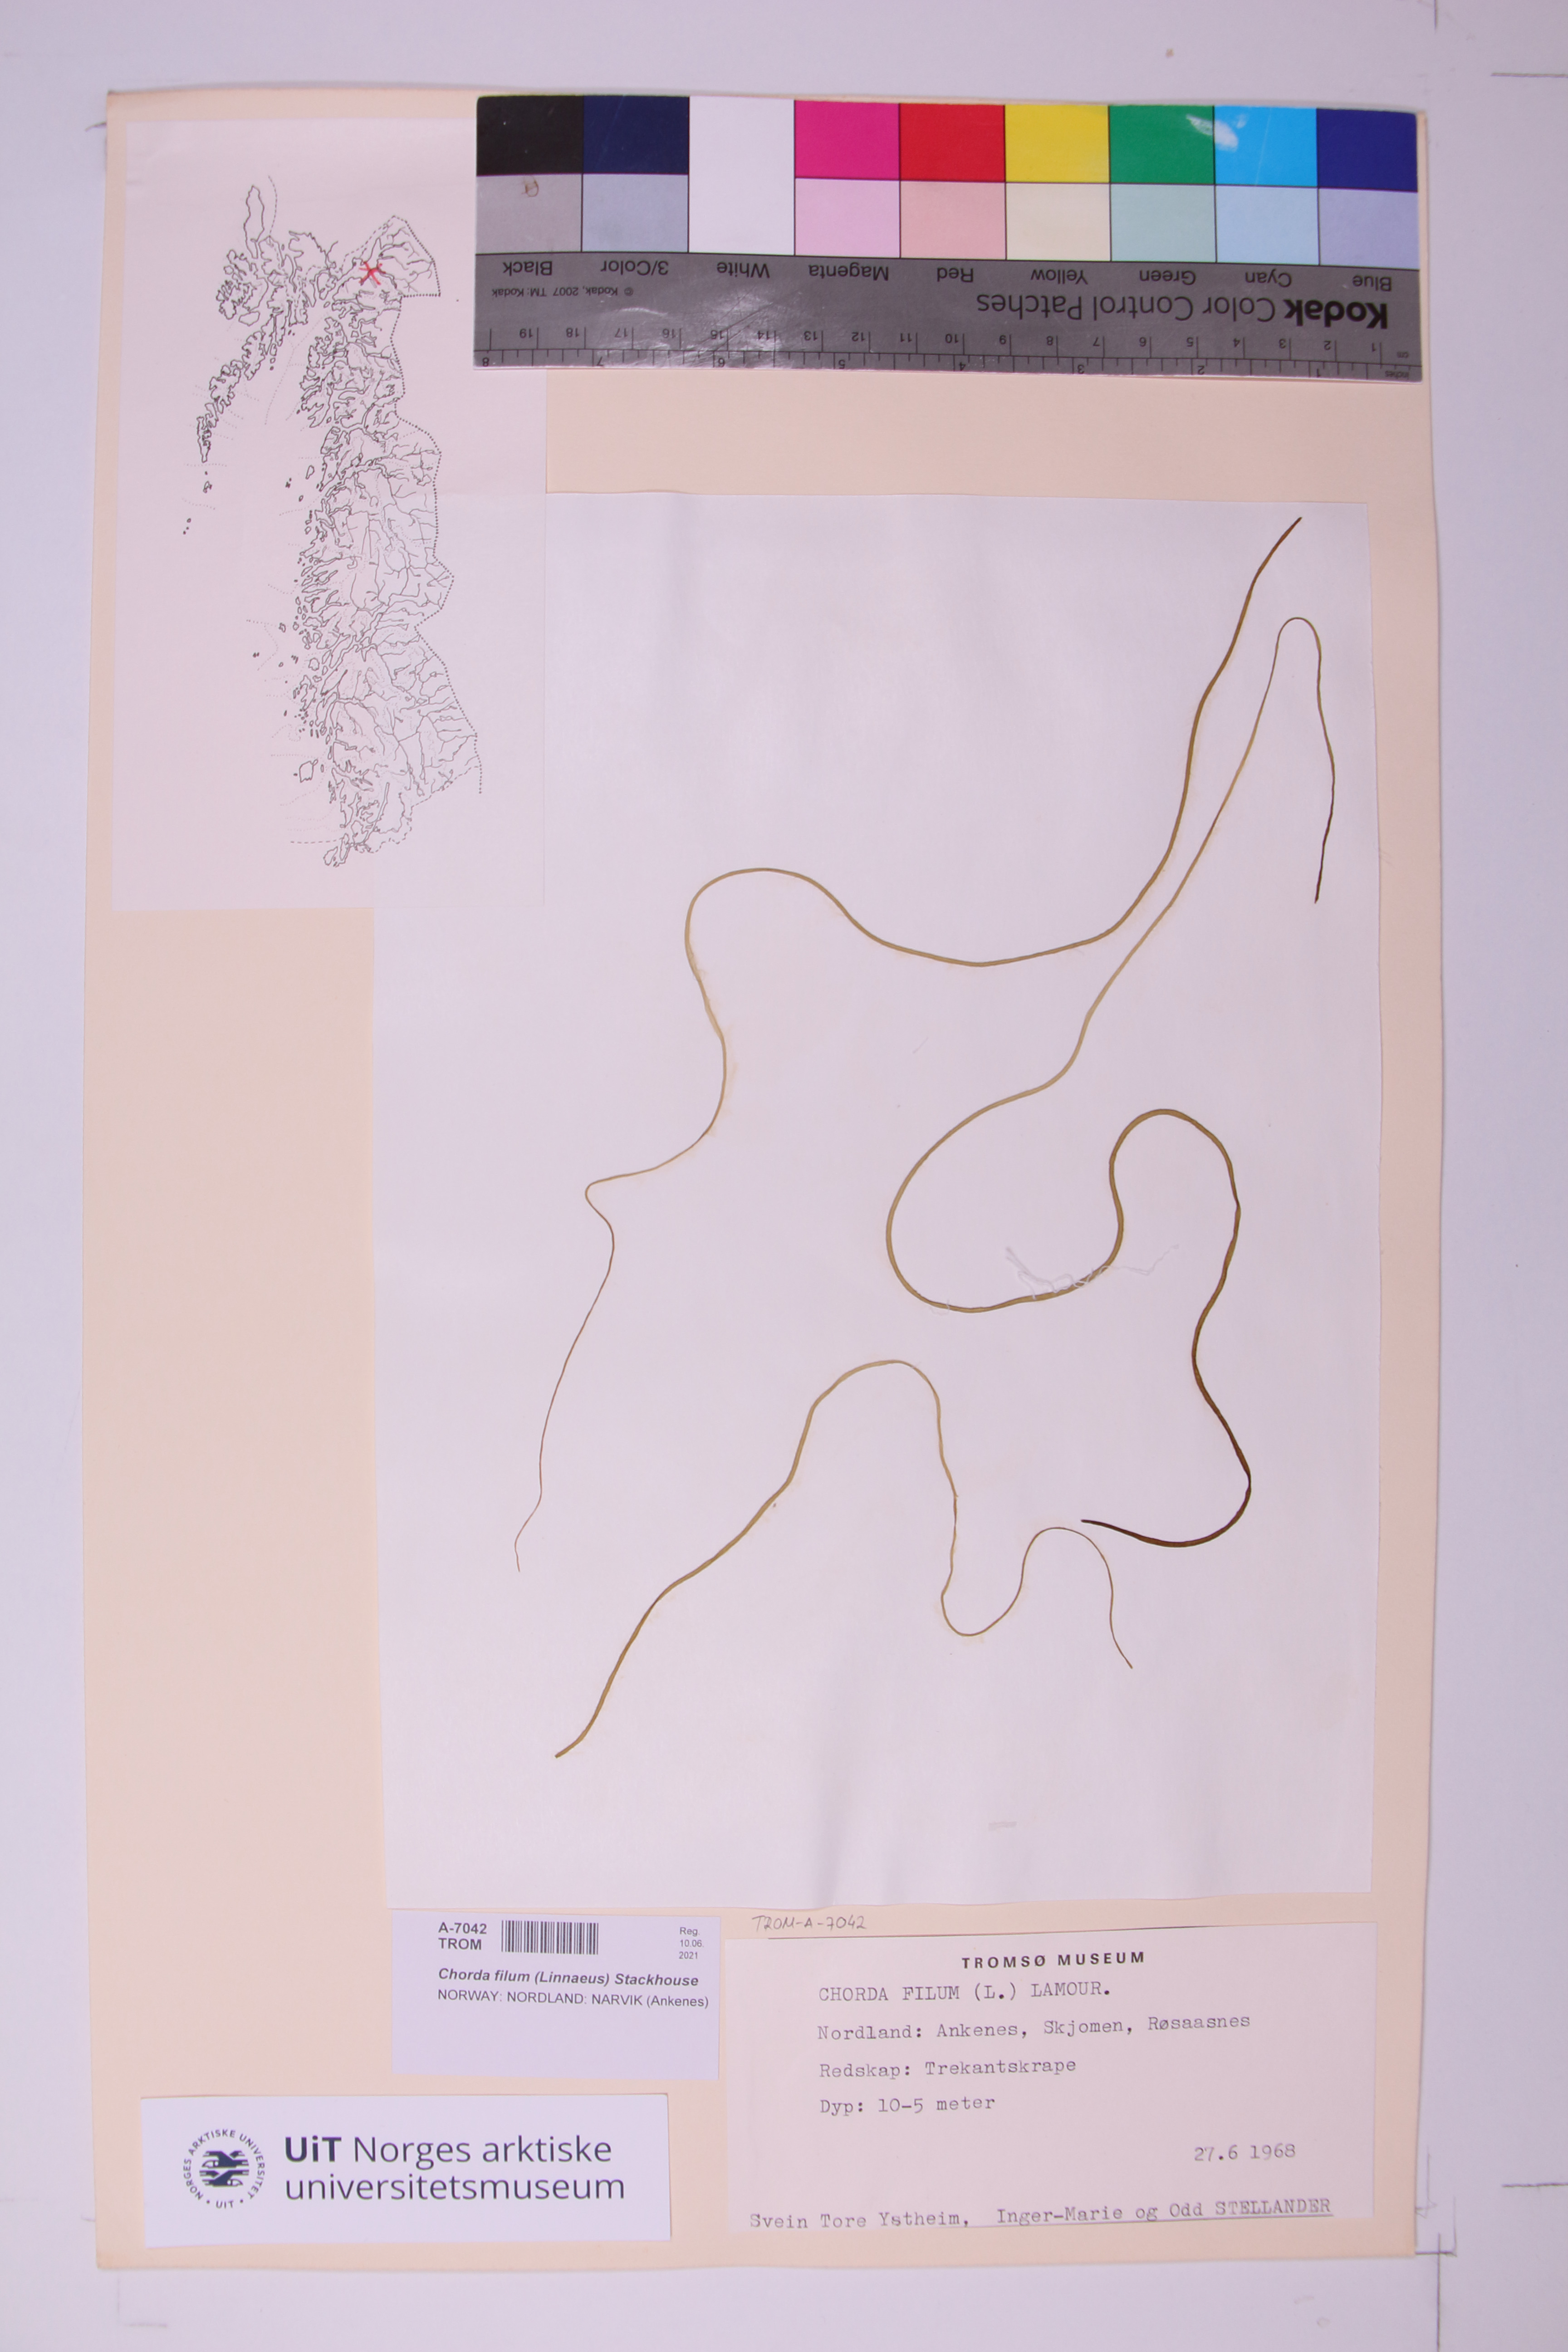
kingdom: Chromista
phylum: Ochrophyta
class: Phaeophyceae
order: Laminariales
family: Chordaceae
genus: Chorda
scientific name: Chorda filum
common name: Mermaid's tresses
